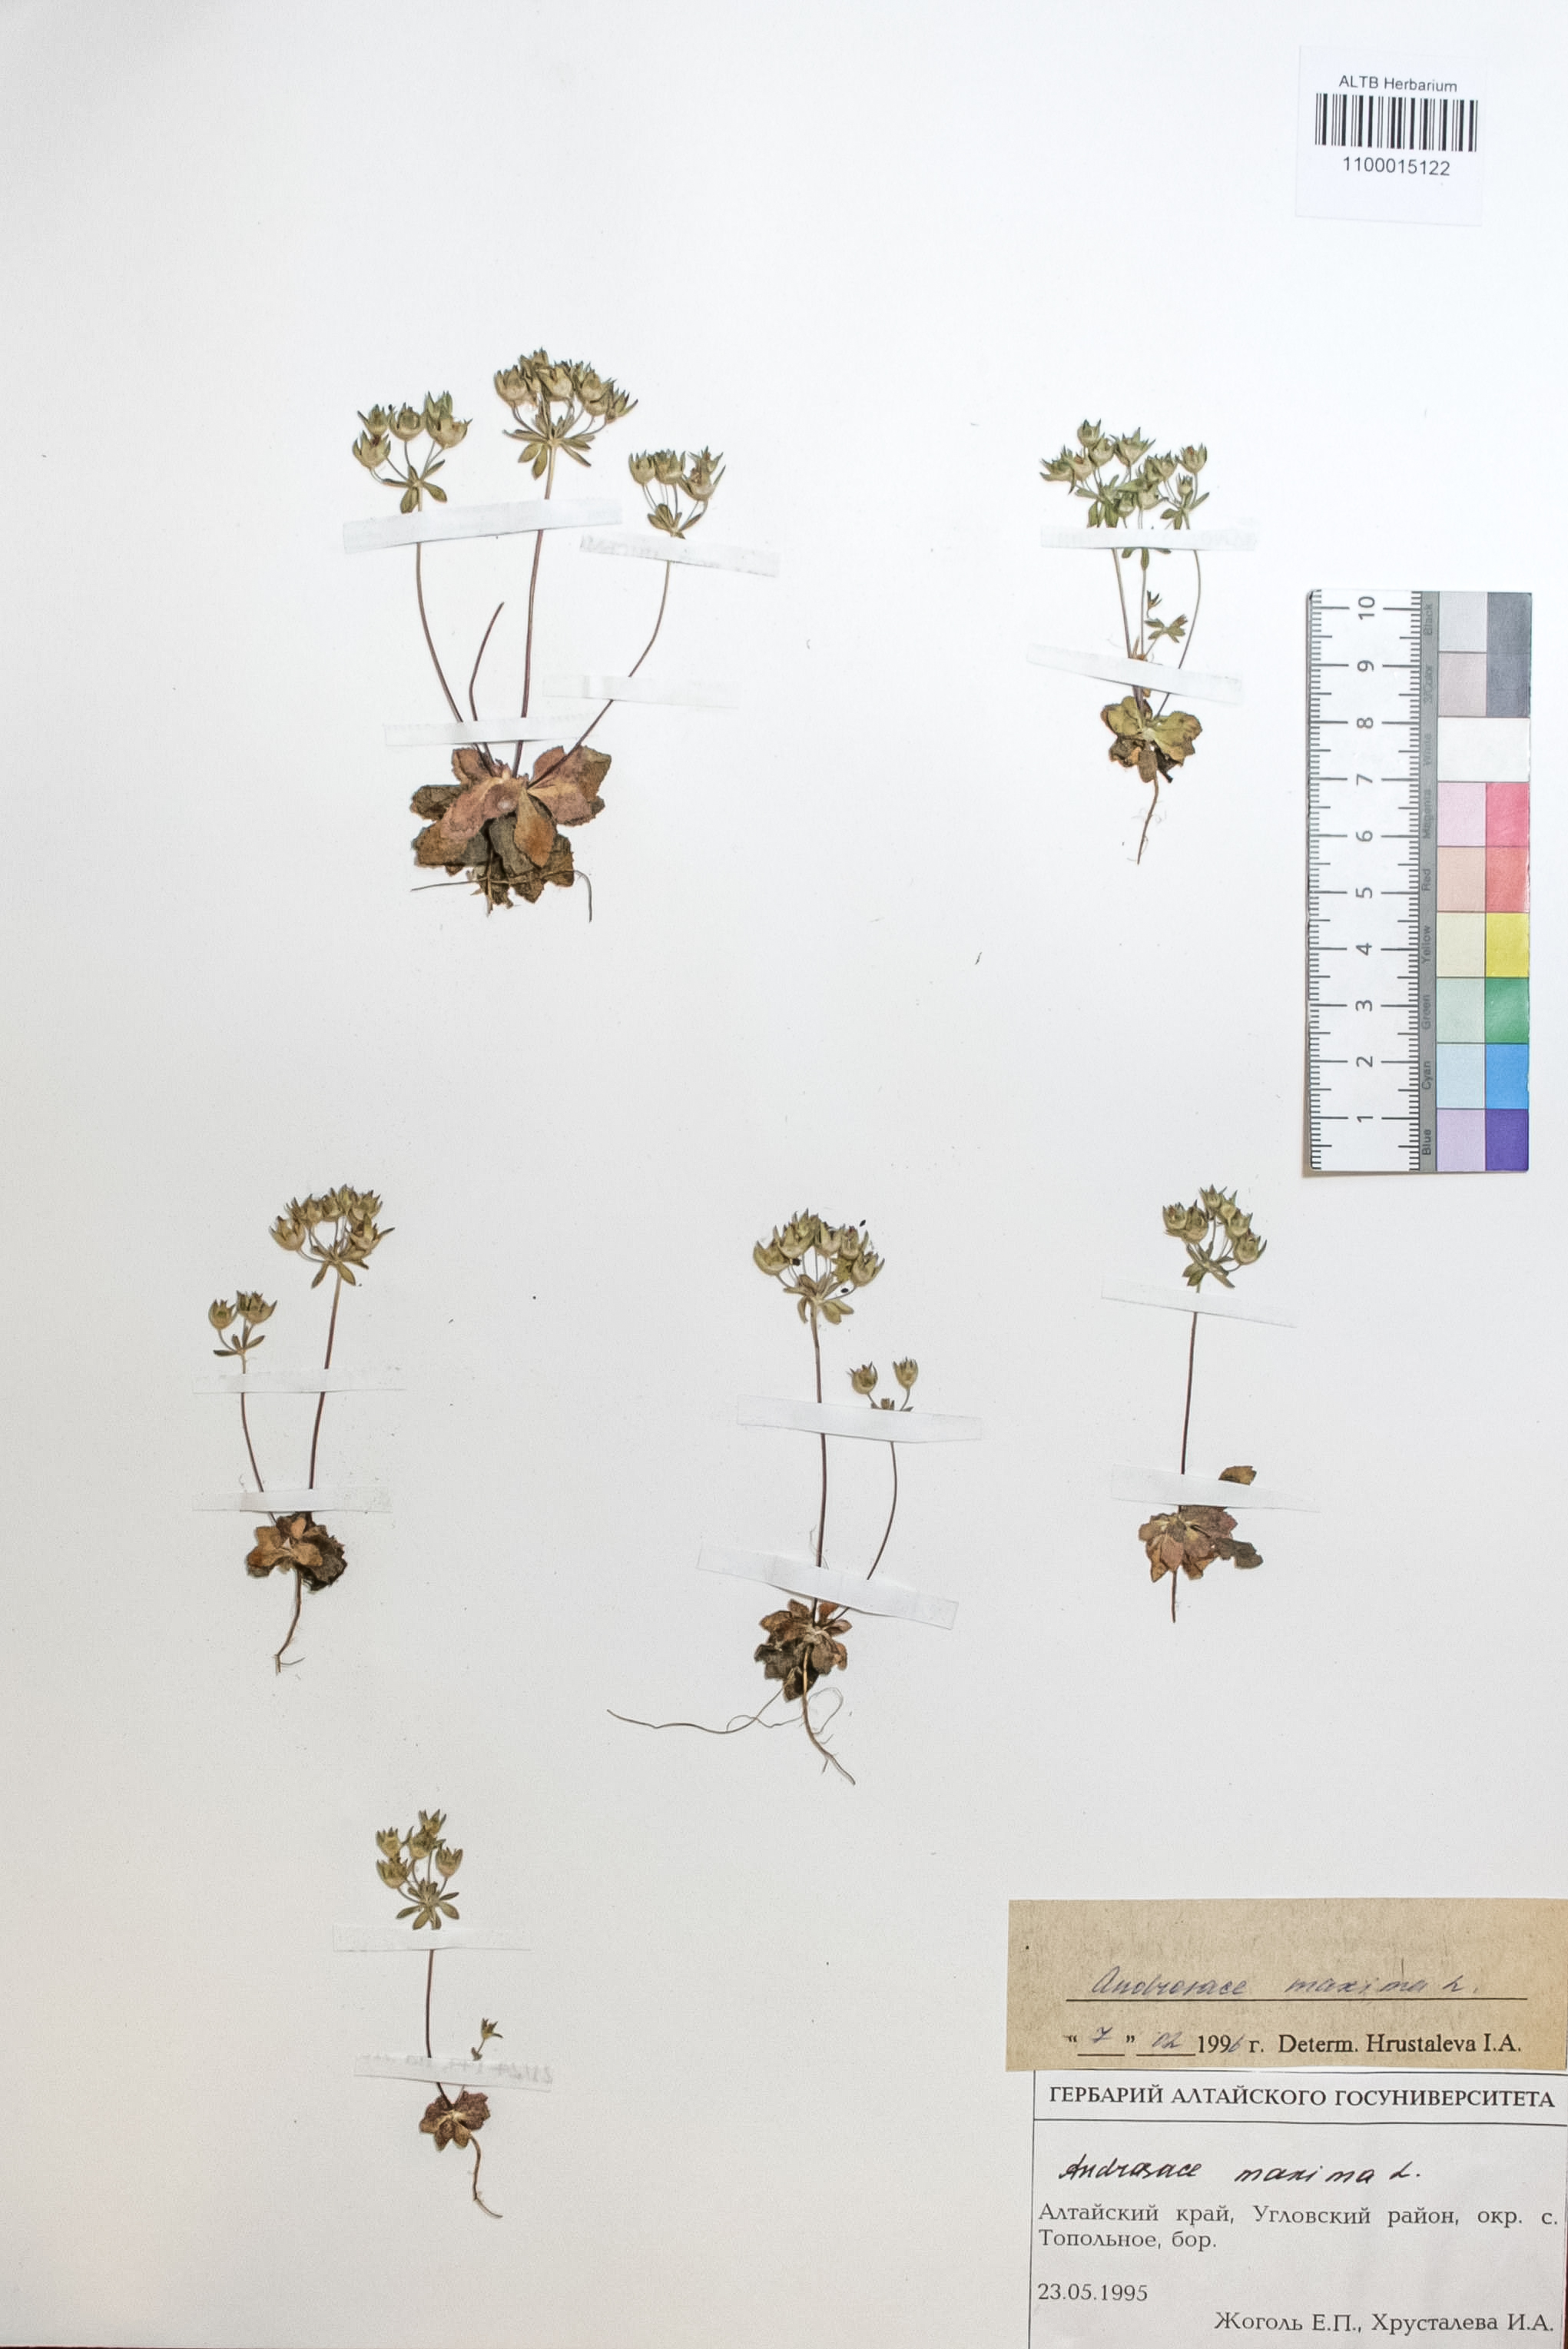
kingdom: Plantae
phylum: Tracheophyta
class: Magnoliopsida
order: Ericales
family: Primulaceae
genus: Androsace
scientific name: Androsace maxima
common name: Annual androsace
